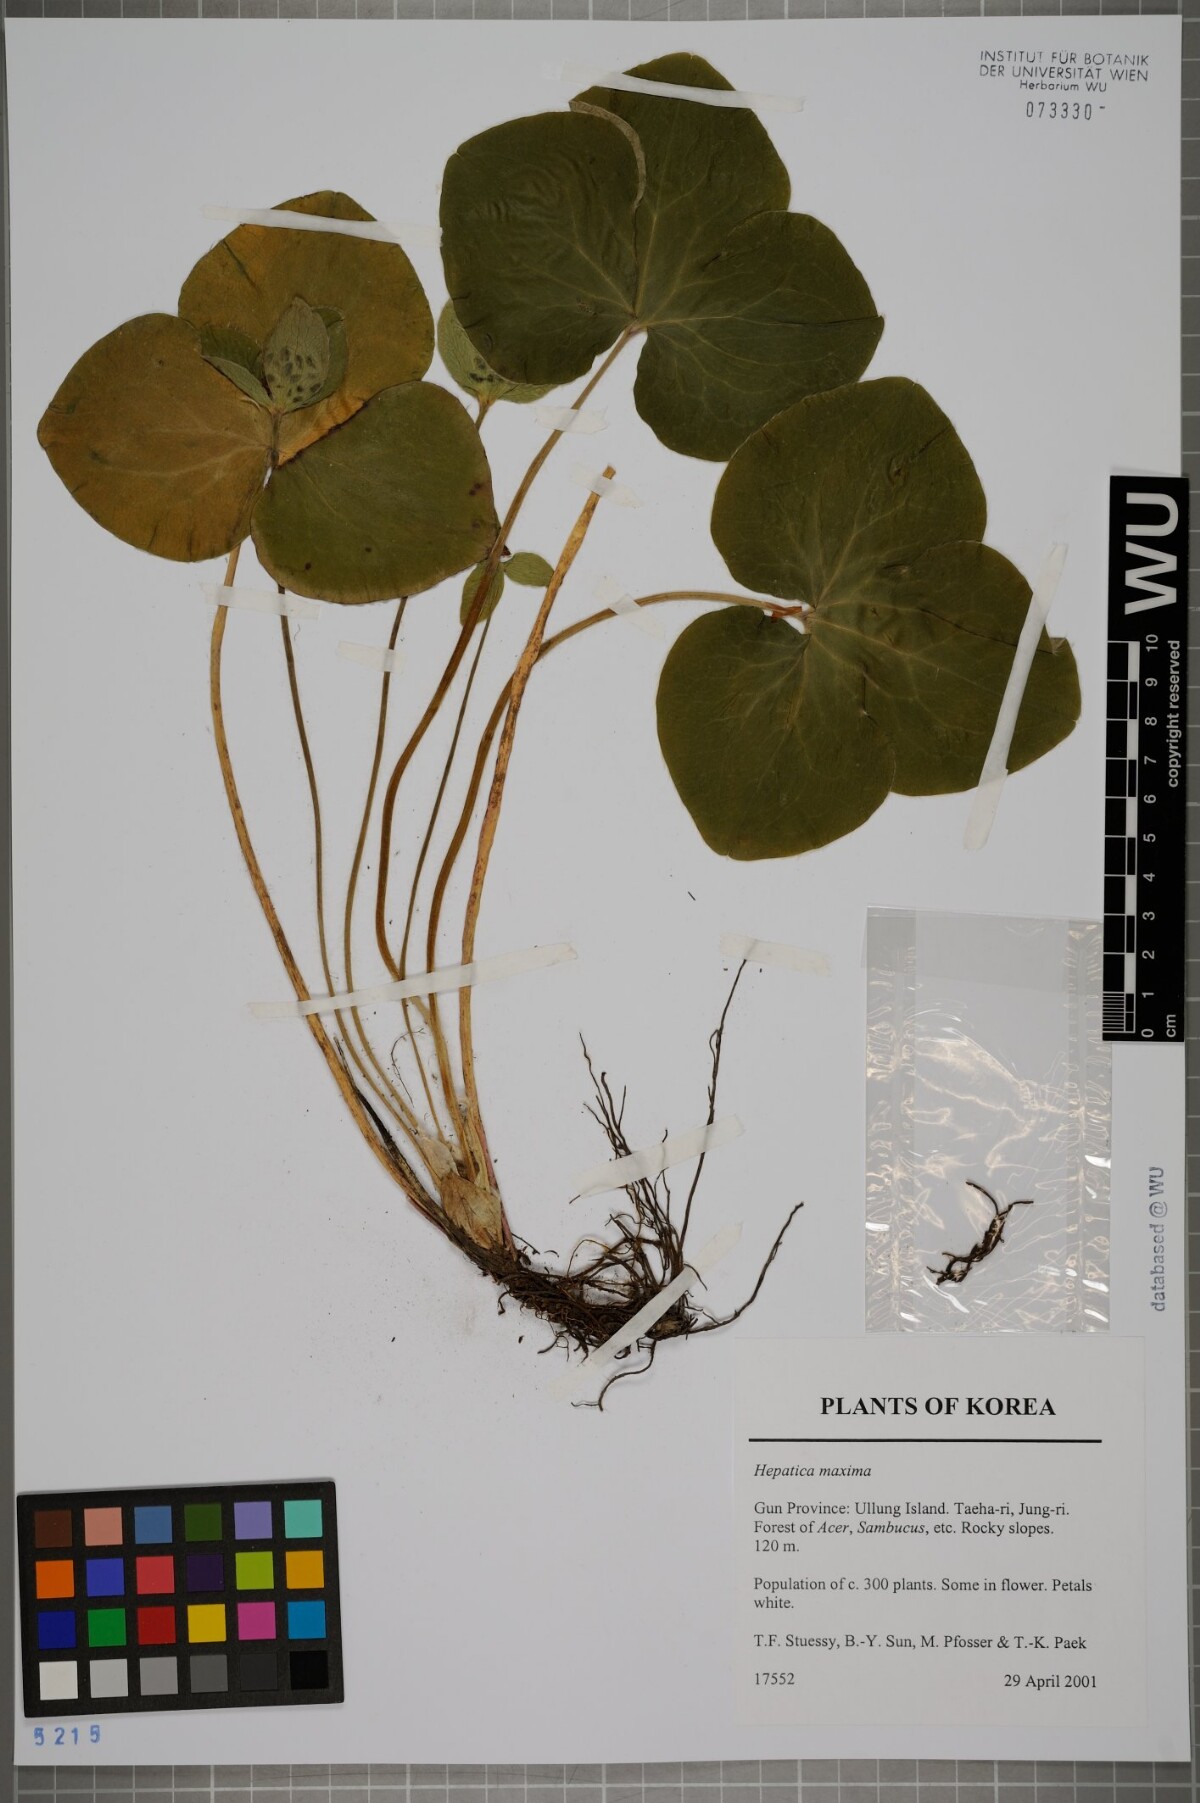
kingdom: Plantae
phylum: Tracheophyta
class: Magnoliopsida
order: Ranunculales
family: Ranunculaceae
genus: Hepatica
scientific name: Hepatica maxima
